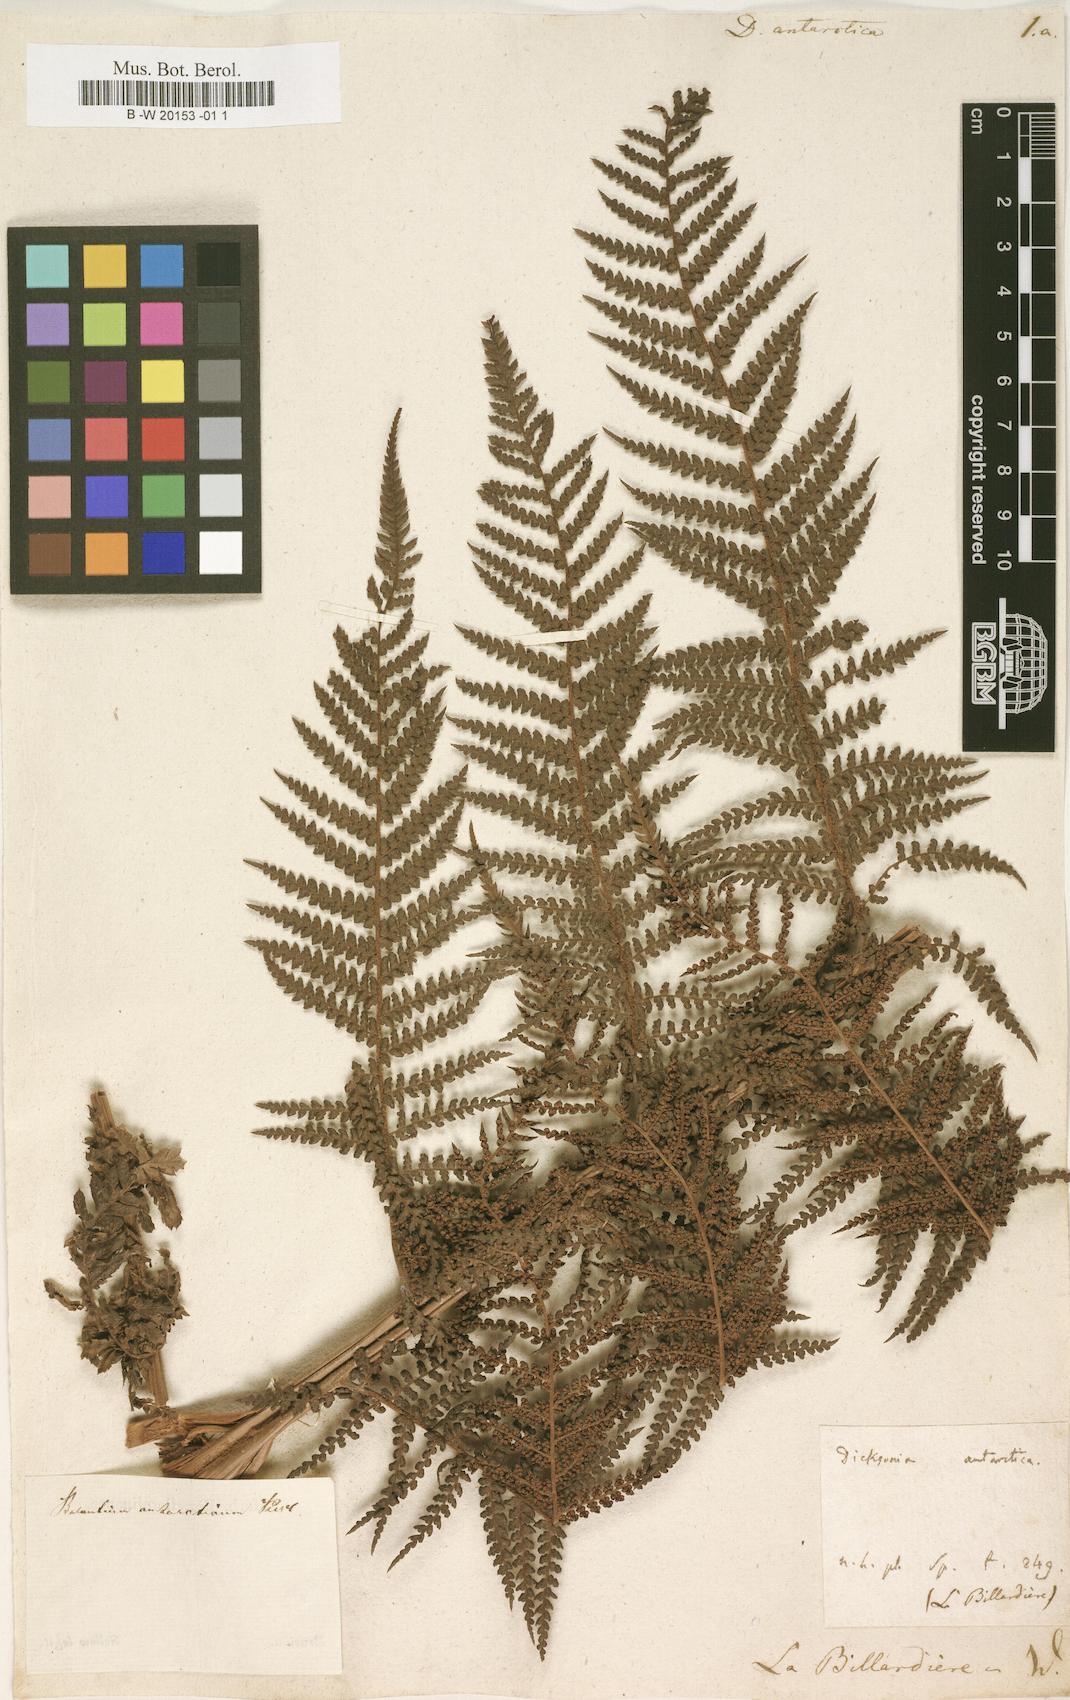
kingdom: Plantae
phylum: Tracheophyta
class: Polypodiopsida
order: Cyatheales
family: Dicksoniaceae
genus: Dicksonia
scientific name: Dicksonia antarctica
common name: Australian treefern
